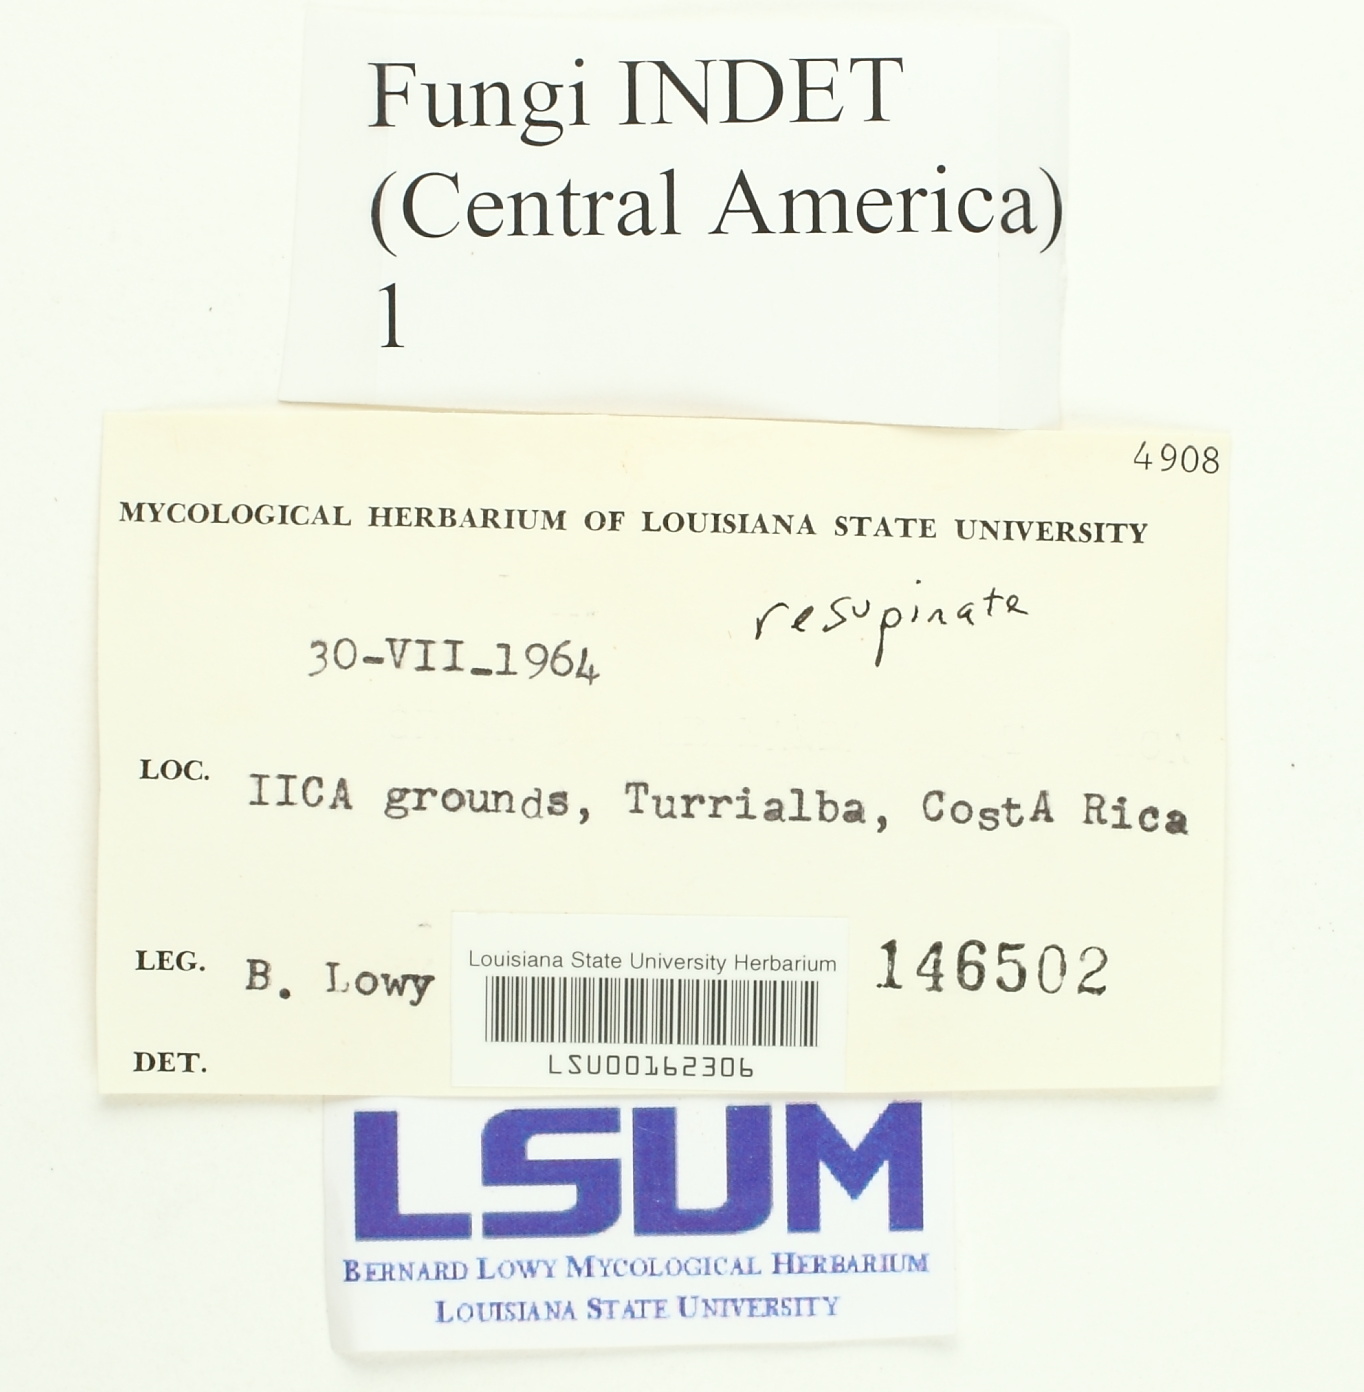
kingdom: Fungi
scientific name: Fungi
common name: Fungi
